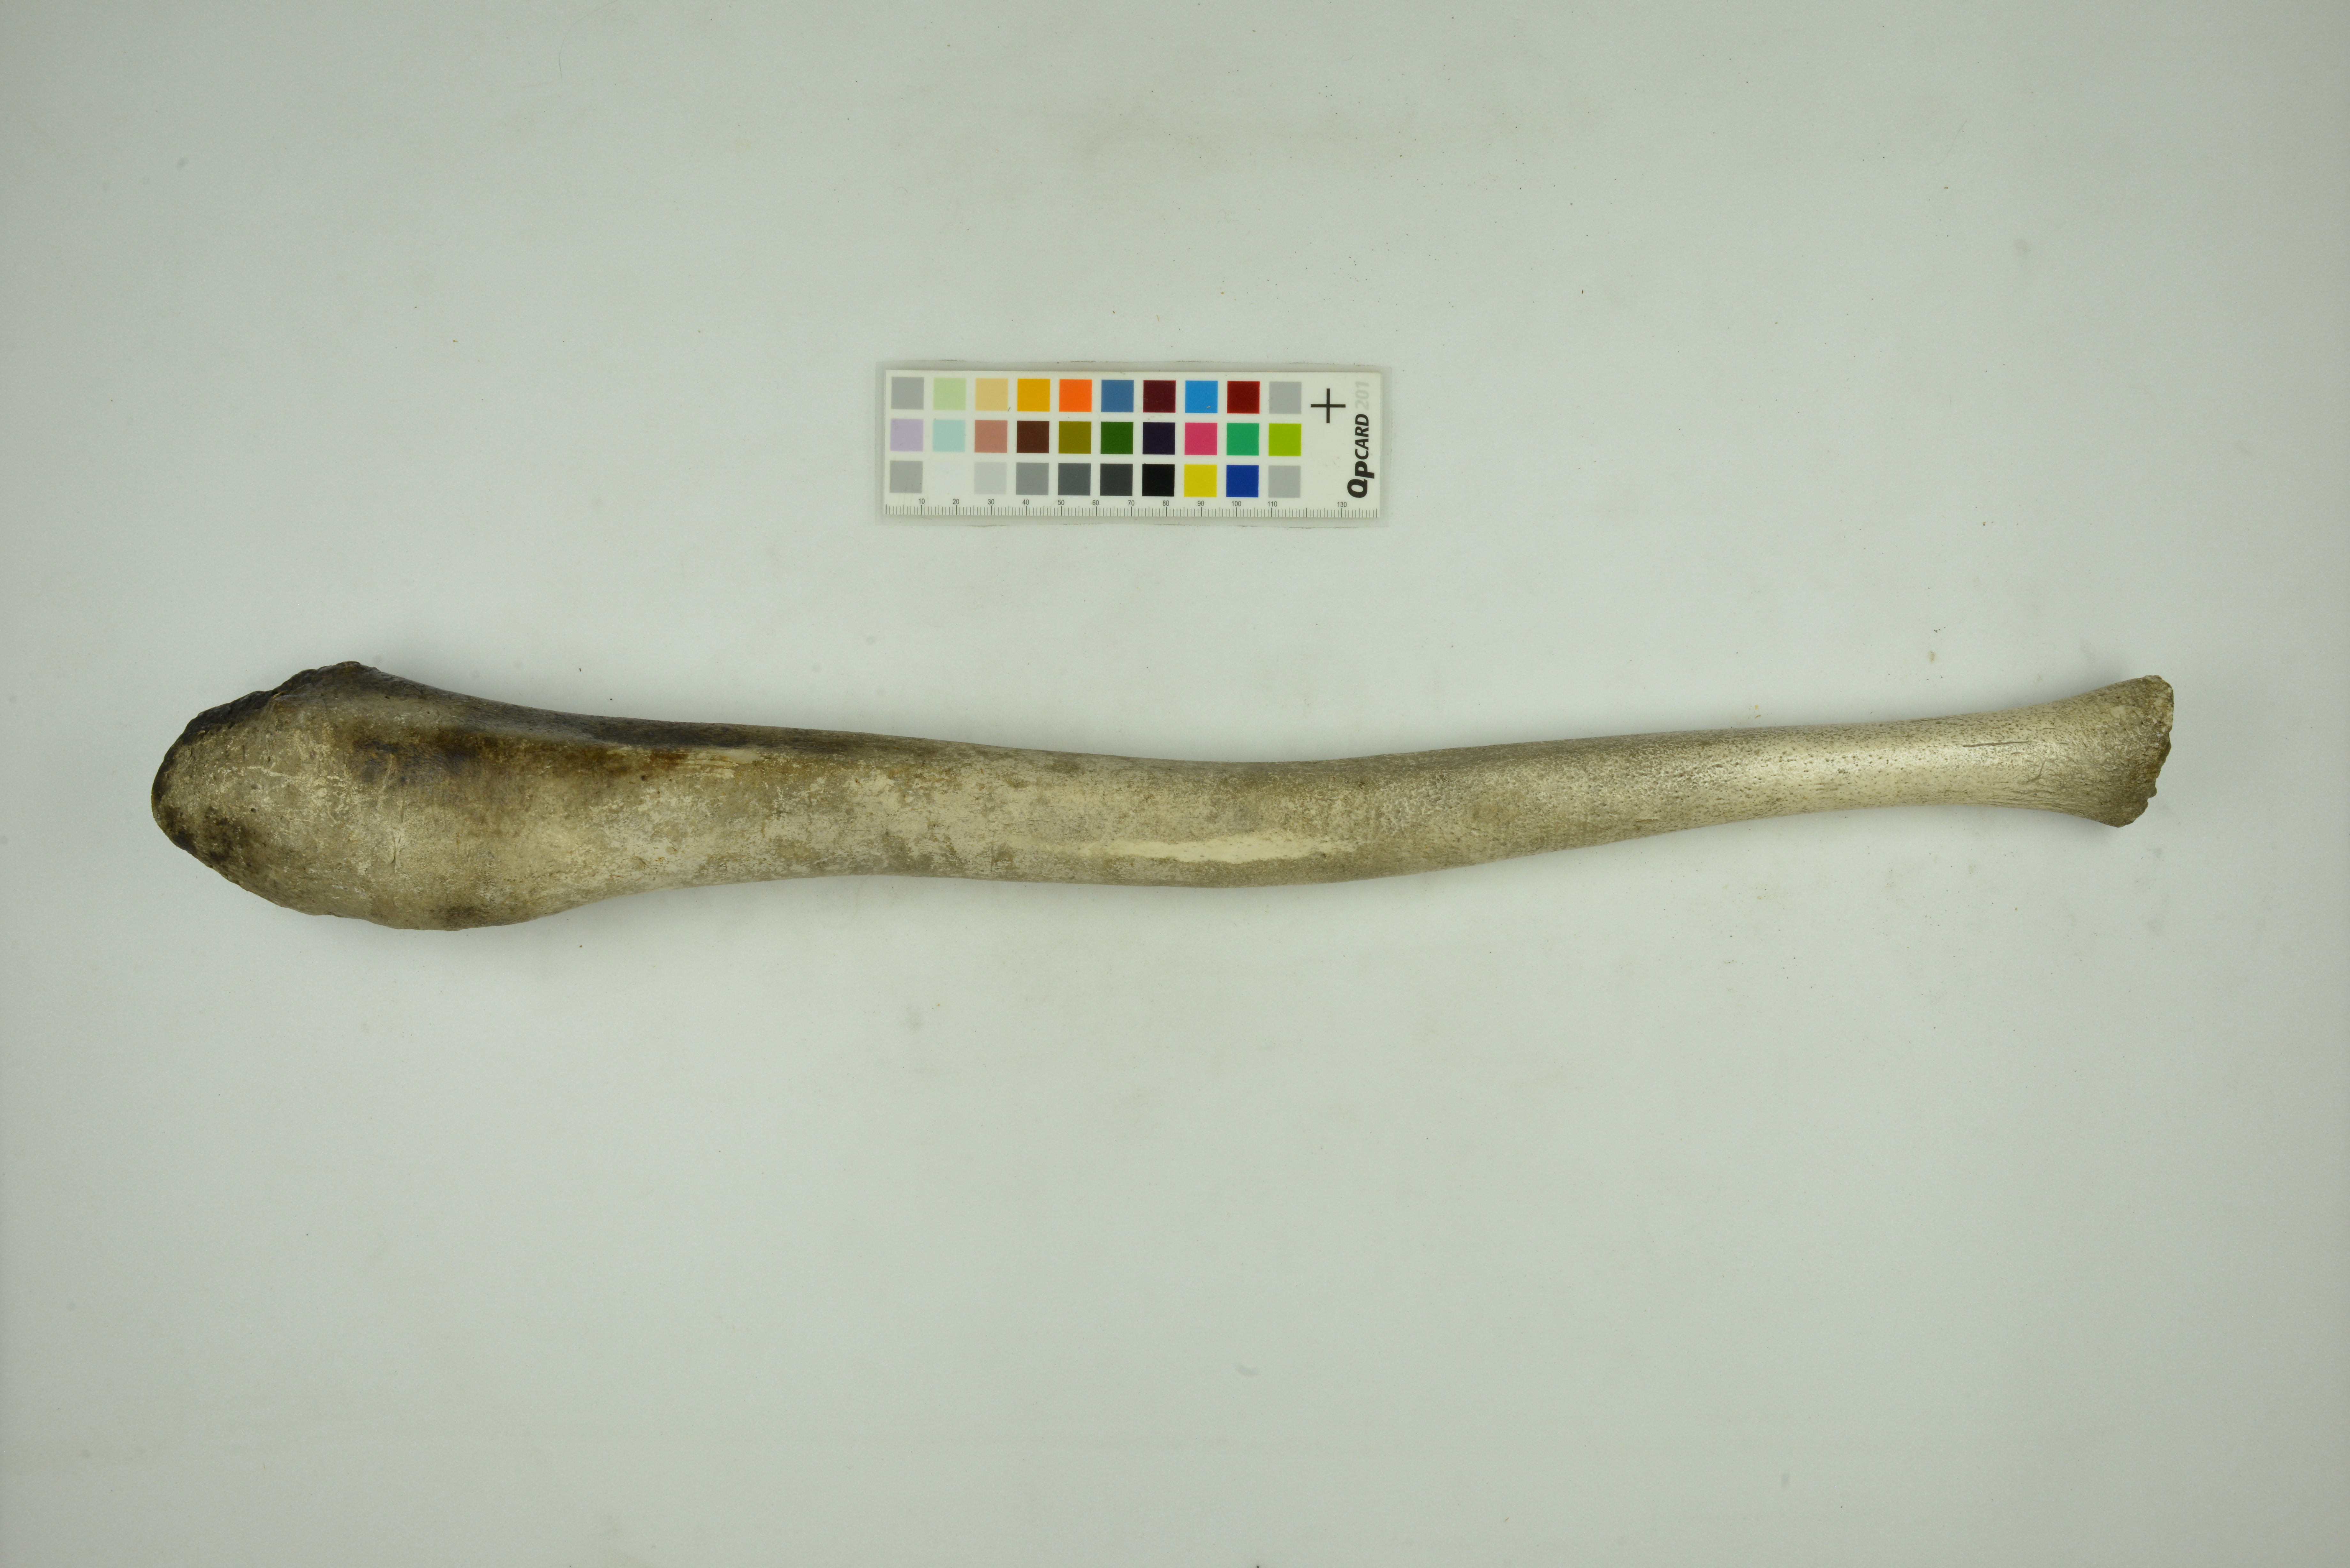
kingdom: Animalia
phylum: Chordata
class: Mammalia
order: Carnivora
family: Odobenidae
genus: Odobenus
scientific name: Odobenus rosmarus
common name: Walrus
